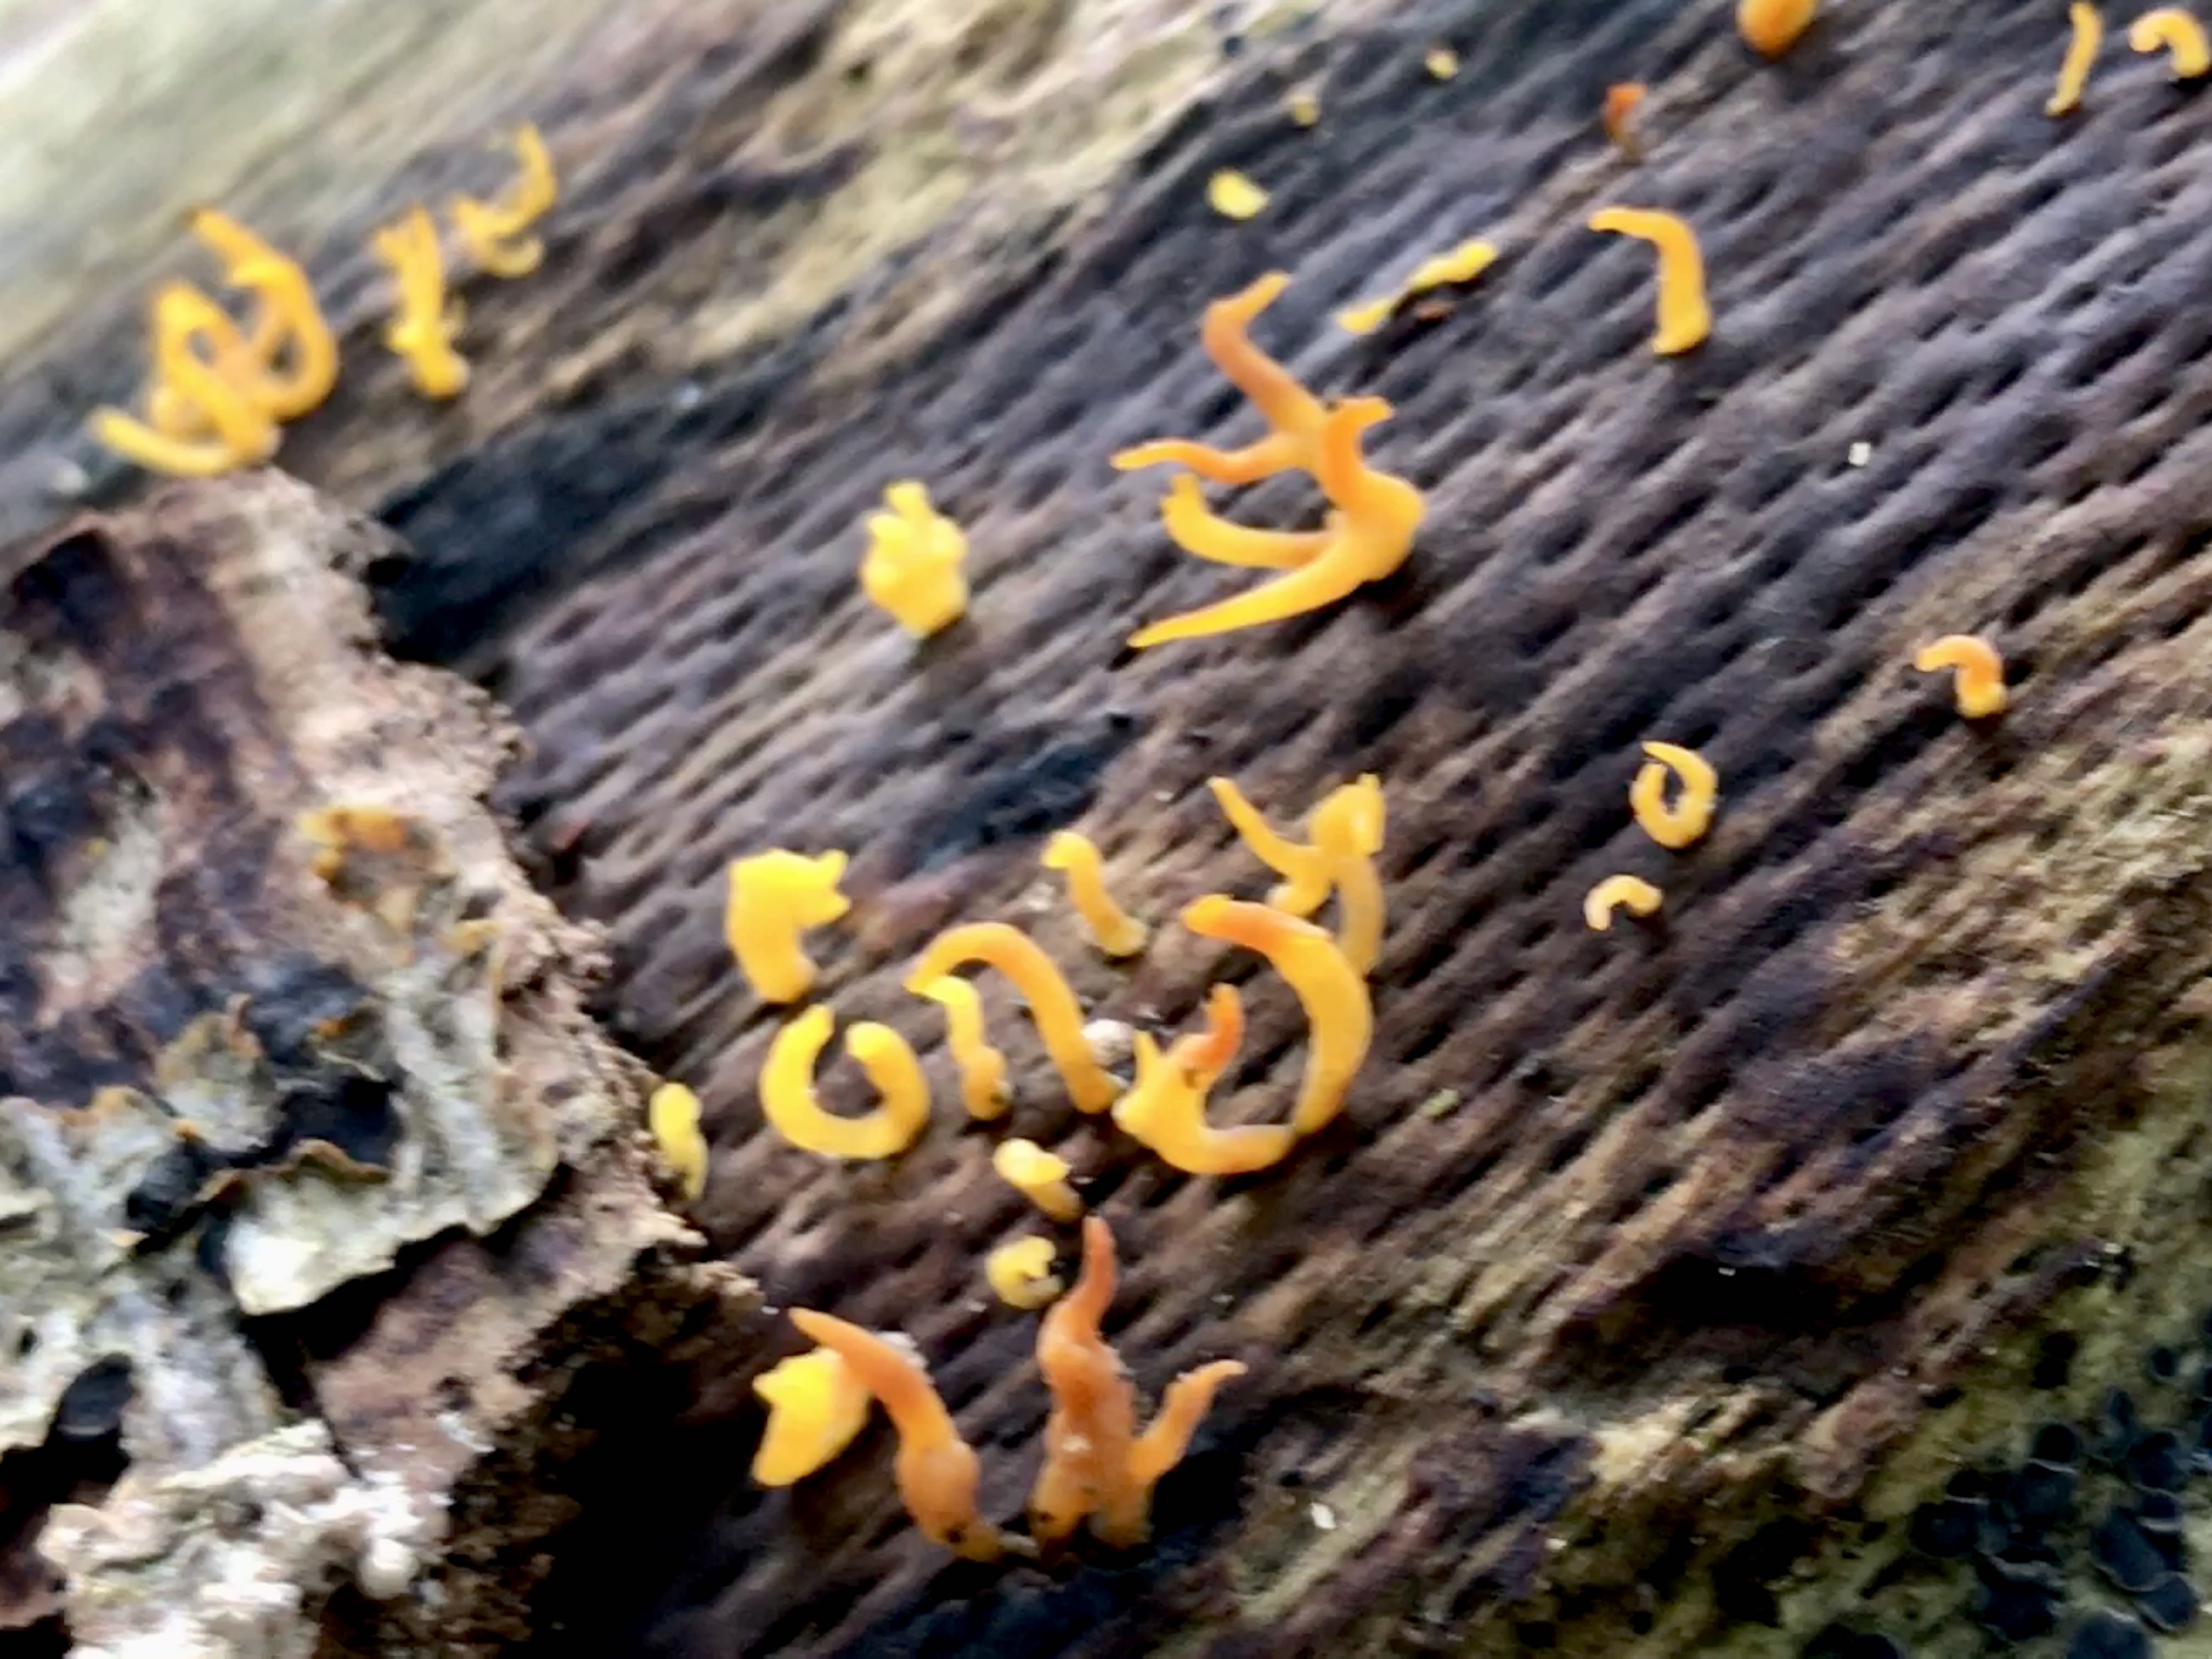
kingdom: Fungi
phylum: Basidiomycota
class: Dacrymycetes
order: Dacrymycetales
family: Dacrymycetaceae
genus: Calocera
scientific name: Calocera cornea
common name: liden guldgaffel
